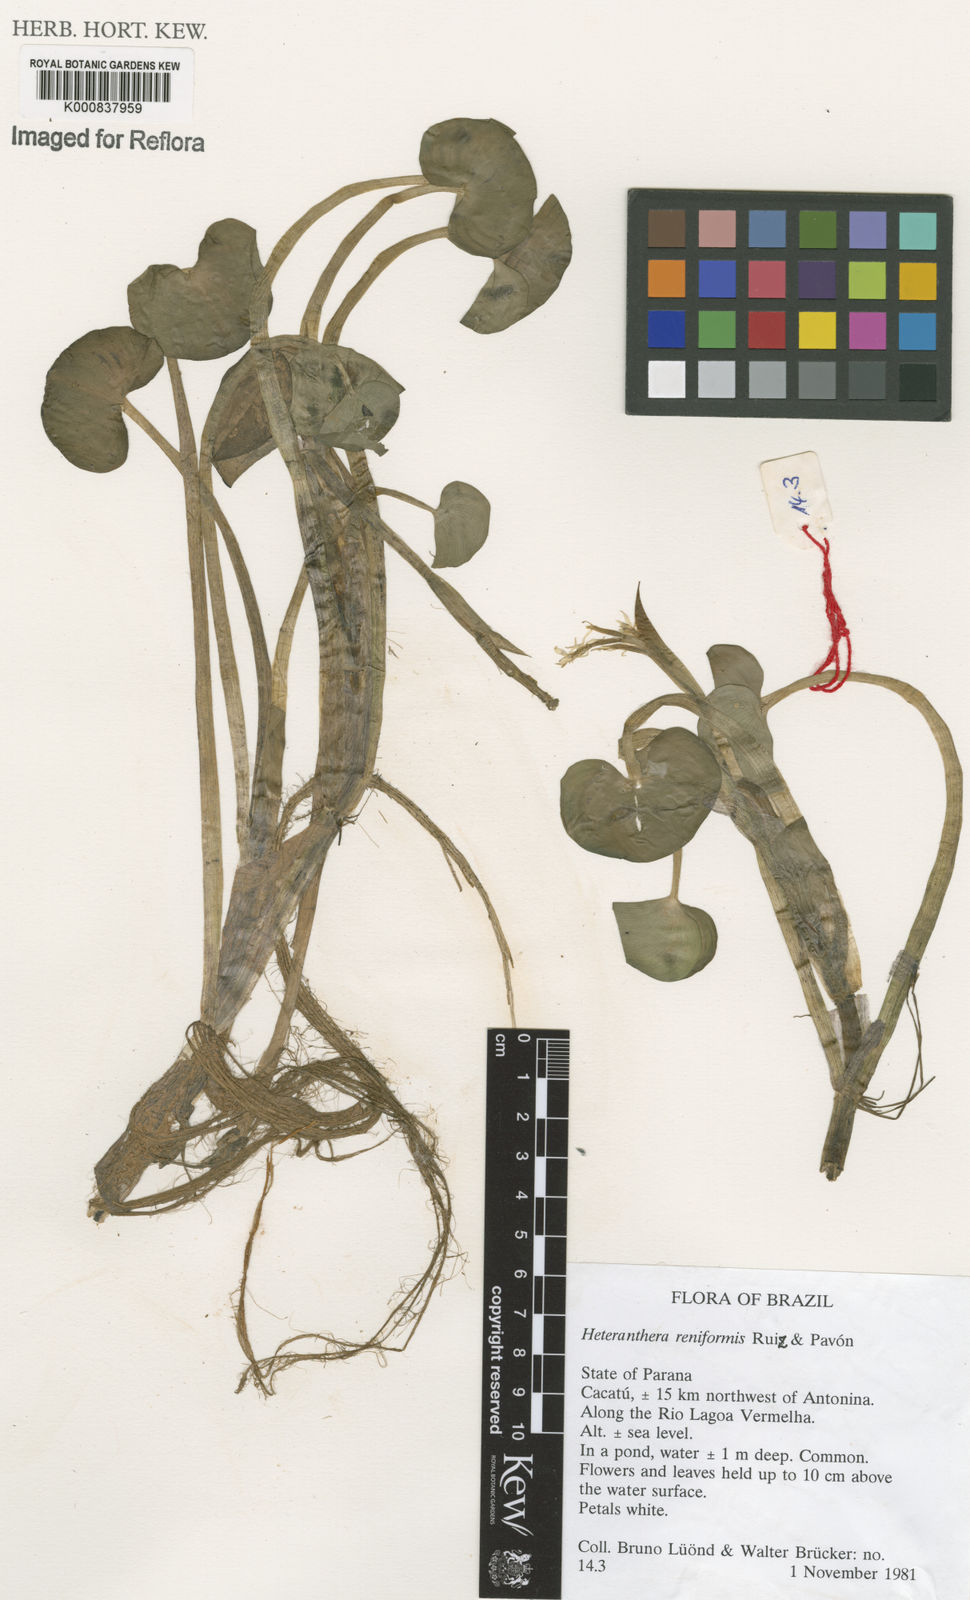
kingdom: Plantae
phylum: Tracheophyta
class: Liliopsida
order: Commelinales
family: Pontederiaceae
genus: Heteranthera
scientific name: Heteranthera oblongifolia
